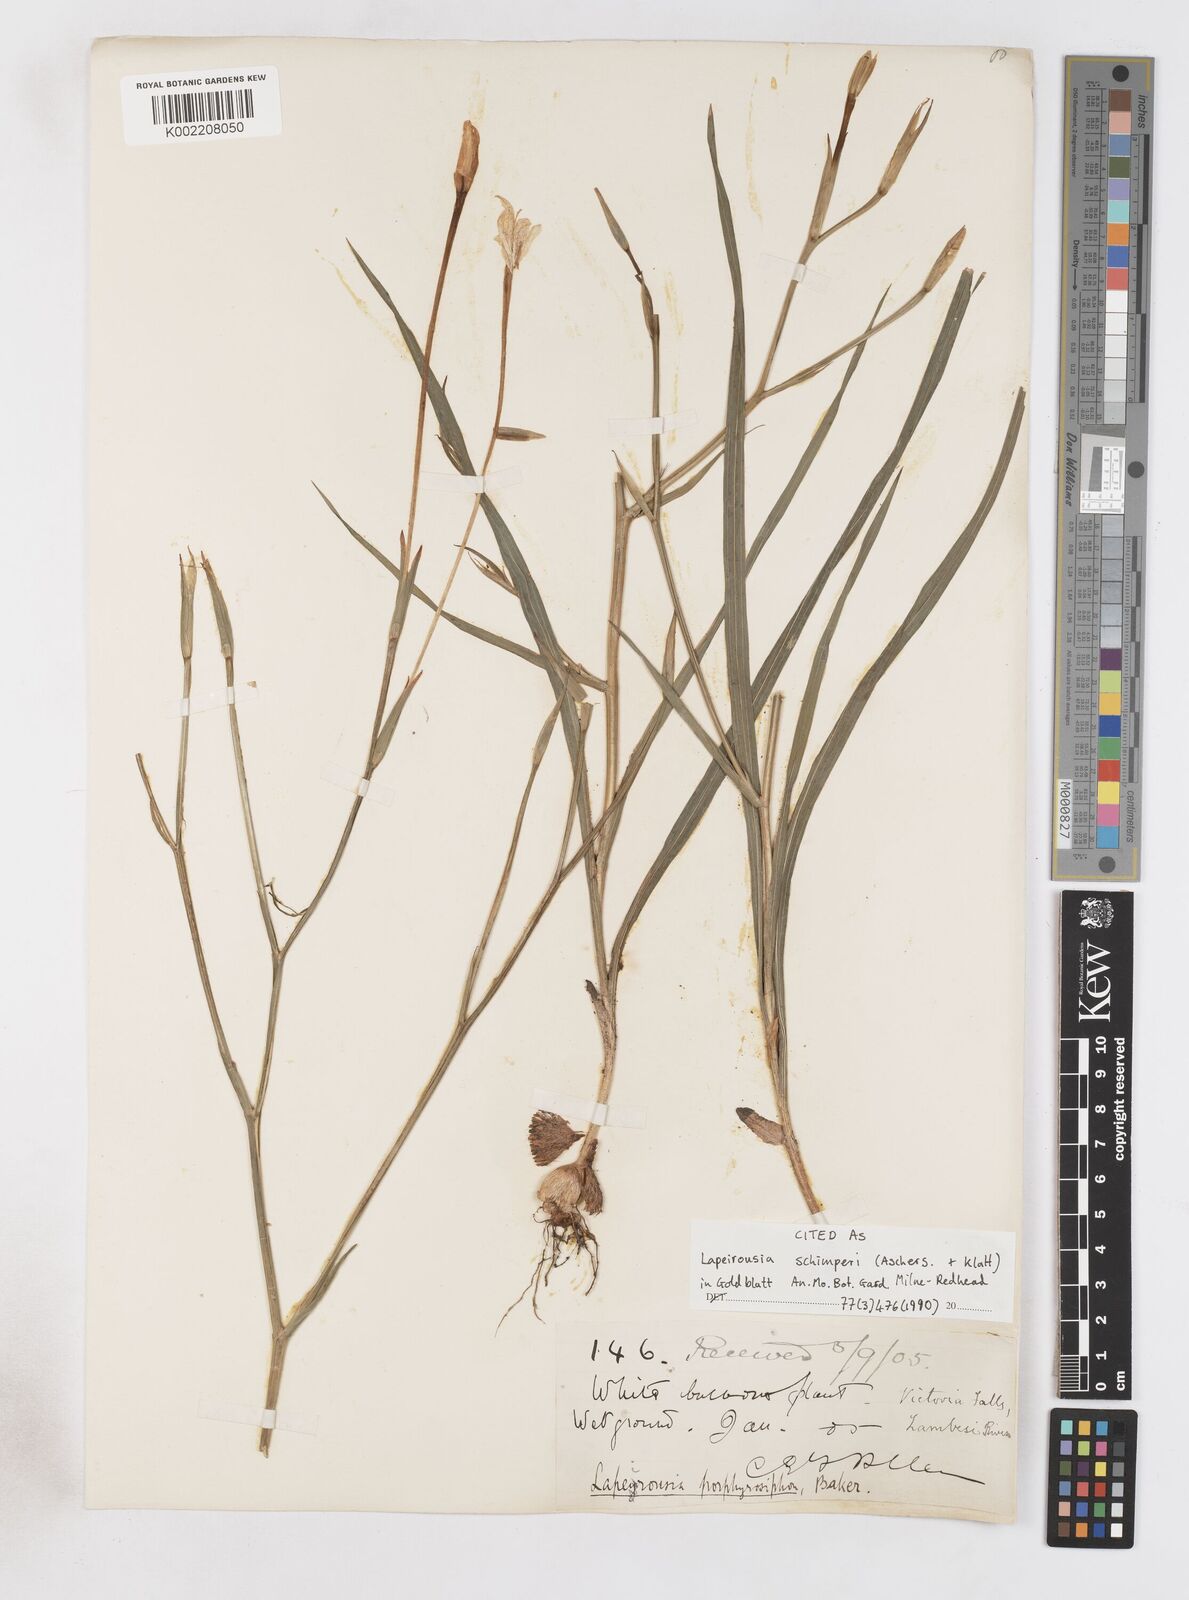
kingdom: Plantae
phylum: Tracheophyta
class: Liliopsida
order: Asparagales
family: Iridaceae
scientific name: Iridaceae
